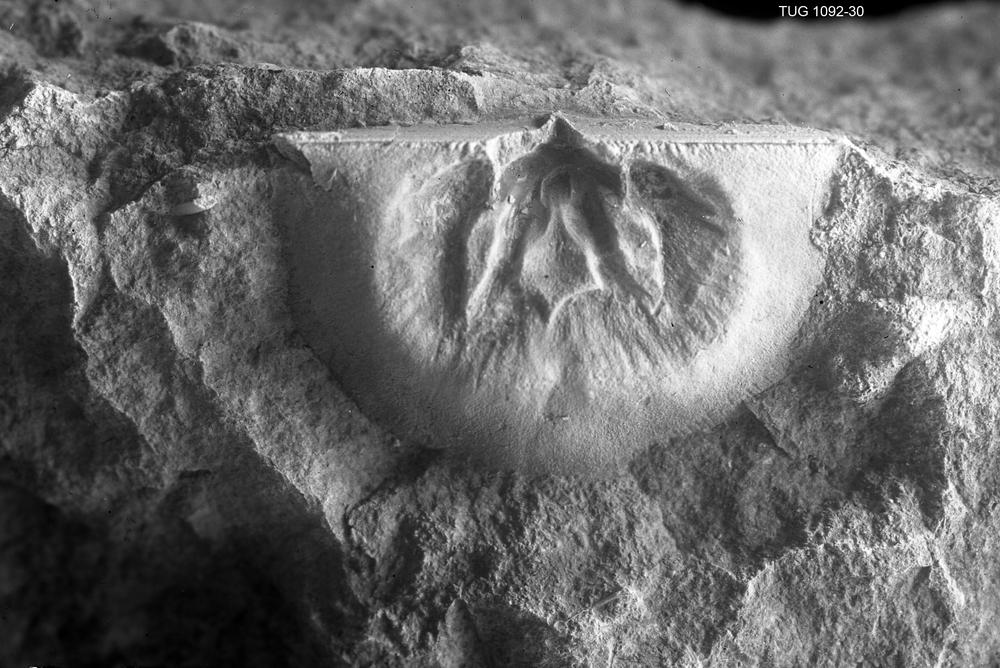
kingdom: Animalia
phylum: Brachiopoda
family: Plectambonitidae
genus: Ingria
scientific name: Ingria expressa
